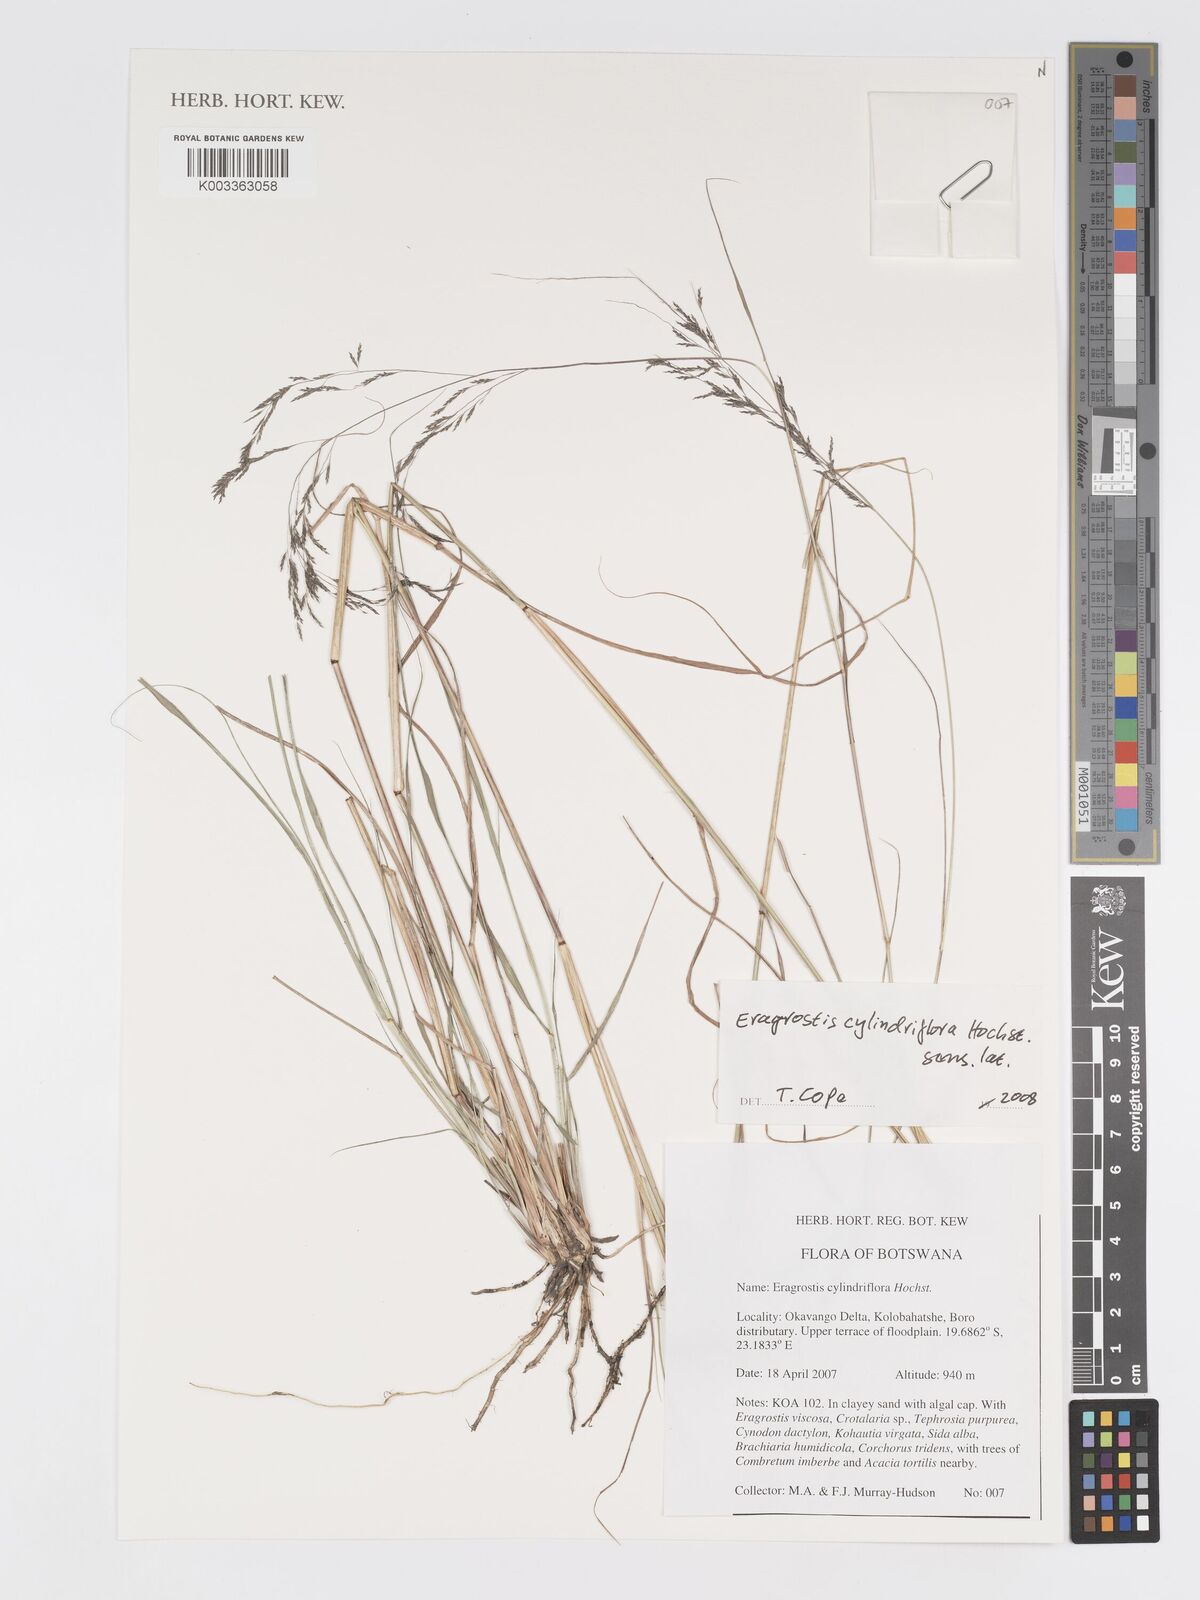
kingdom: Plantae
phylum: Tracheophyta
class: Liliopsida
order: Poales
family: Poaceae
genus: Eragrostis
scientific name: Eragrostis cylindriflora
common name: Cylinderflower lovegrass
